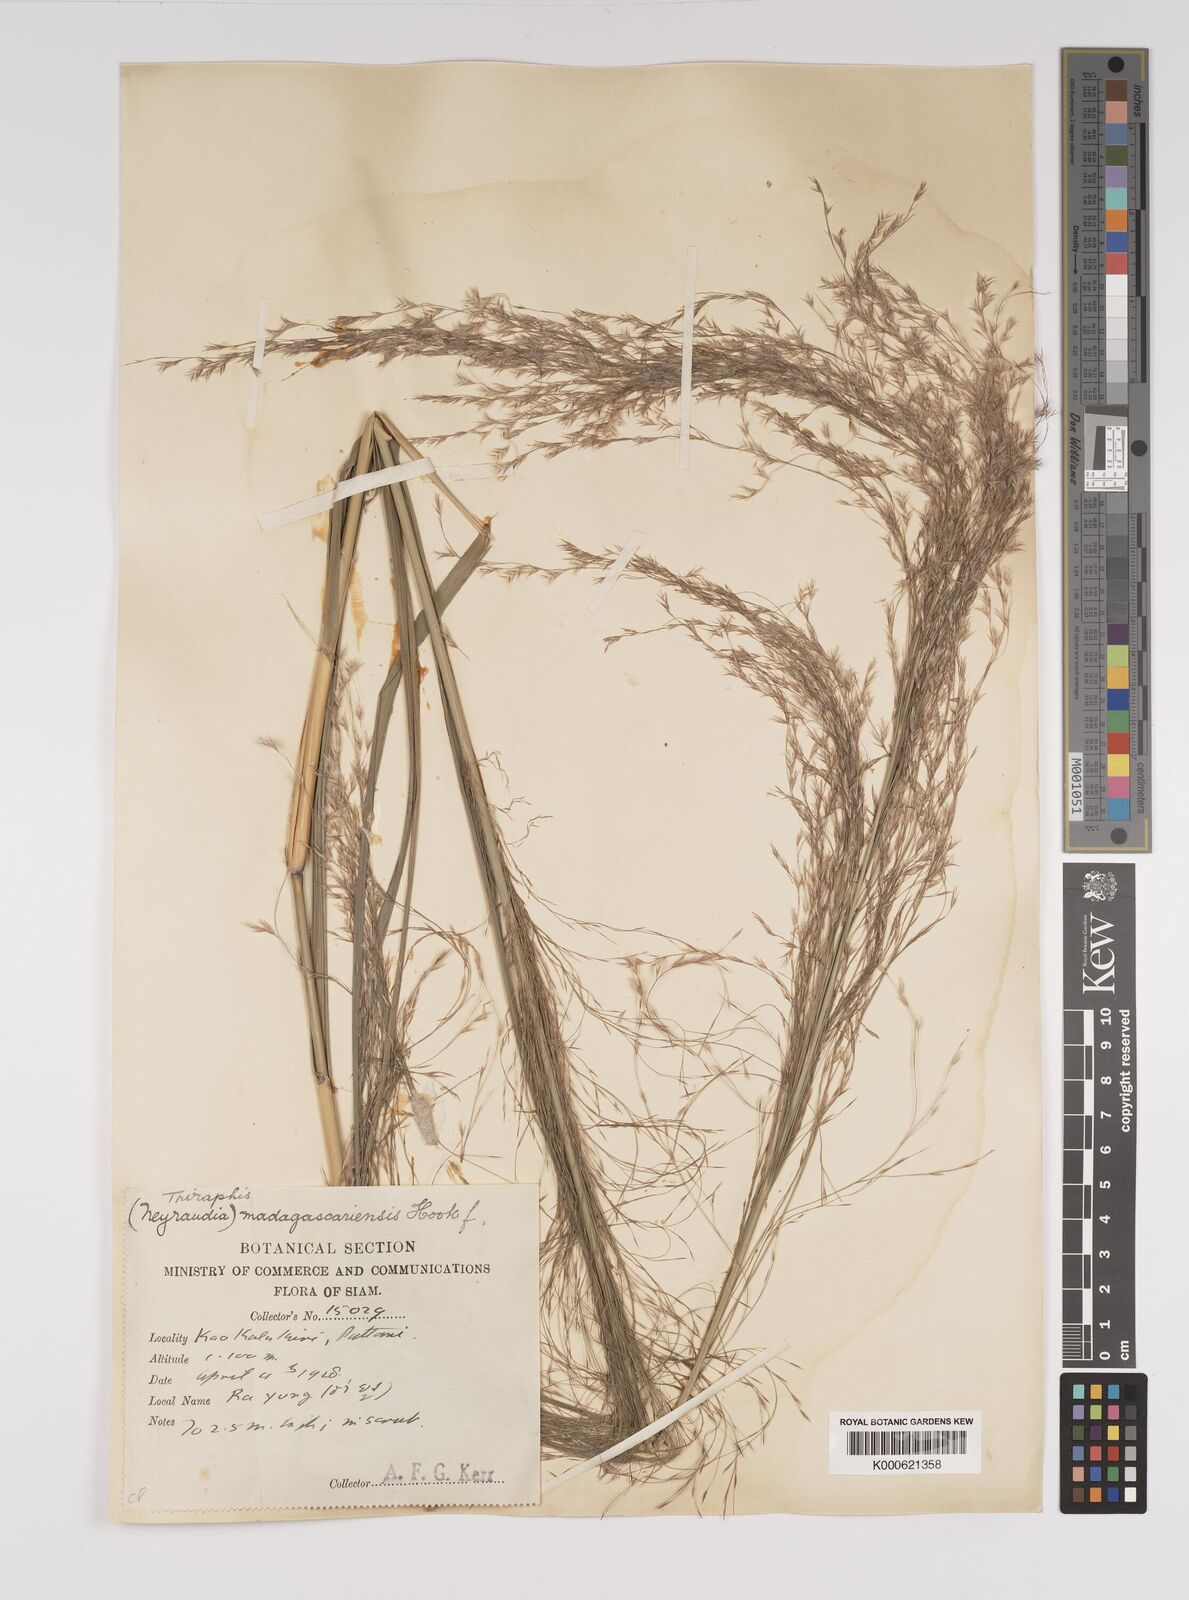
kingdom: Plantae
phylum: Tracheophyta
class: Liliopsida
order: Poales
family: Poaceae
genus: Neyraudia
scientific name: Neyraudia reynaudiana
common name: Silkreed
